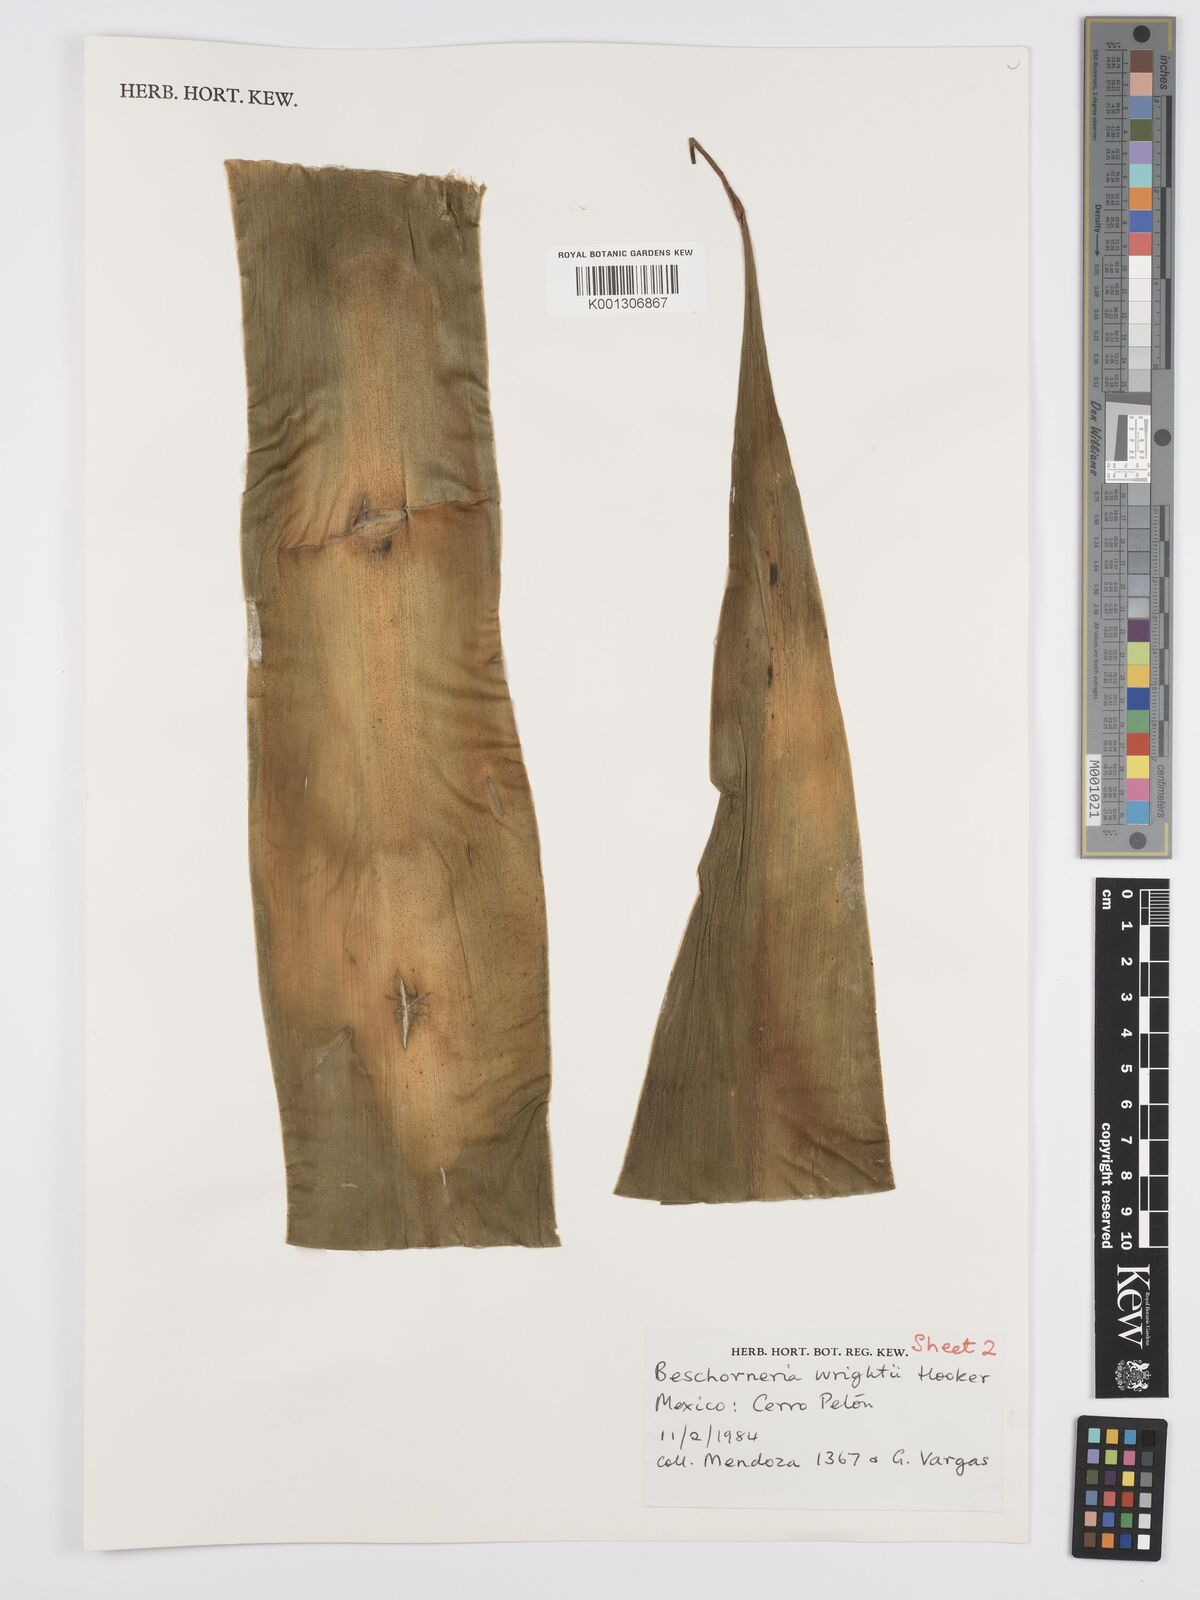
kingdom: Plantae
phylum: Tracheophyta
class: Liliopsida
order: Asparagales
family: Asparagaceae
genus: Beschorneria
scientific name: Beschorneria wrightii
